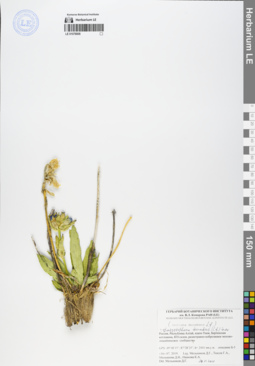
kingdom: Plantae
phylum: Tracheophyta
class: Magnoliopsida
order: Gentianales
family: Gentianaceae
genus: Gentiana
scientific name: Gentiana decumbens
